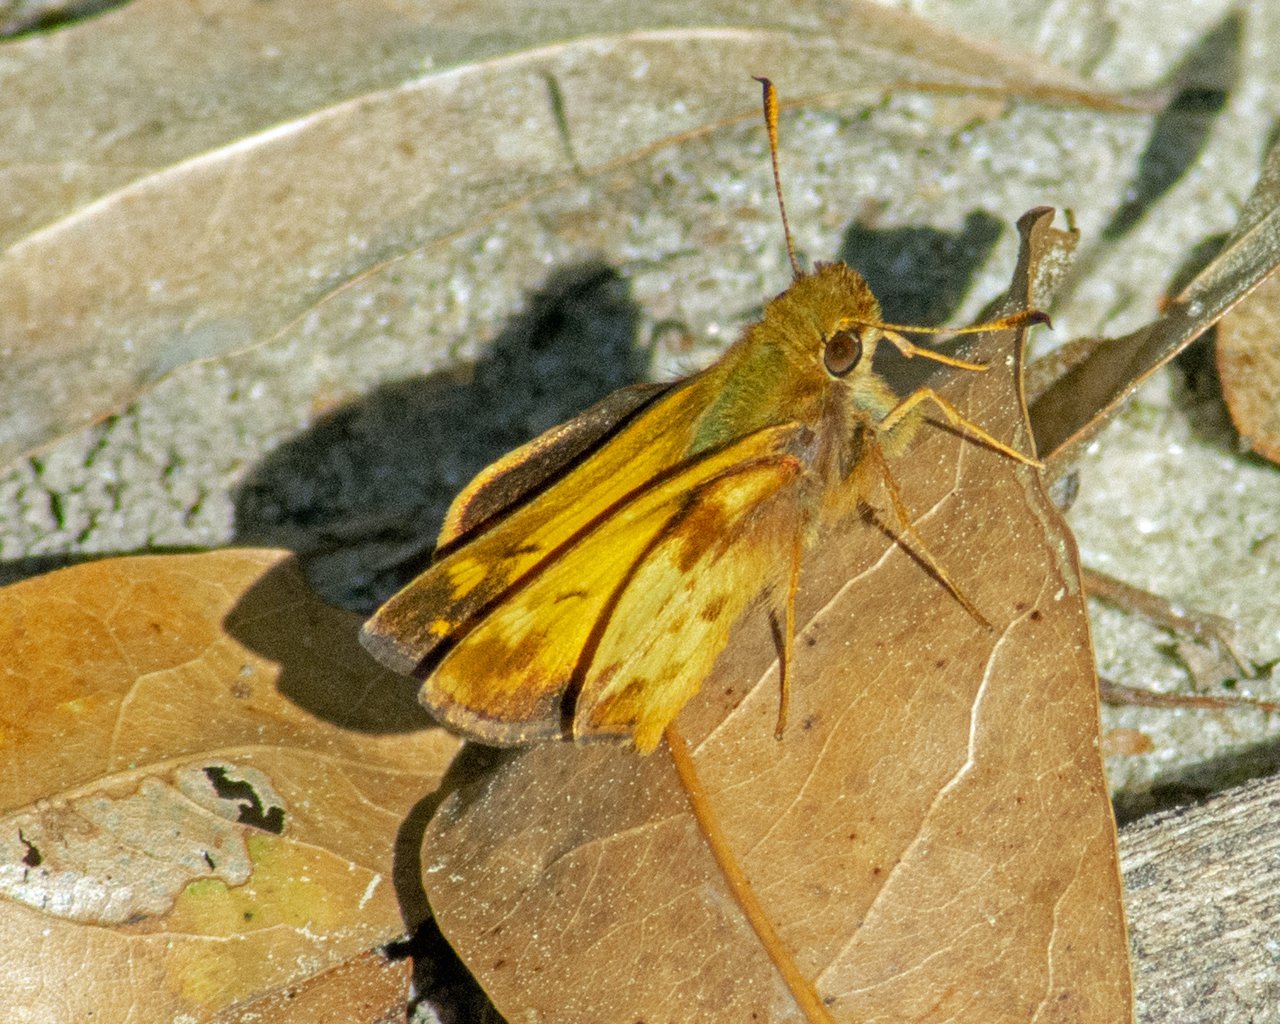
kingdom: Animalia
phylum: Arthropoda
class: Insecta
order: Lepidoptera
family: Hesperiidae
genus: Lon
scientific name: Lon zabulon
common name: Zabulon Skipper
